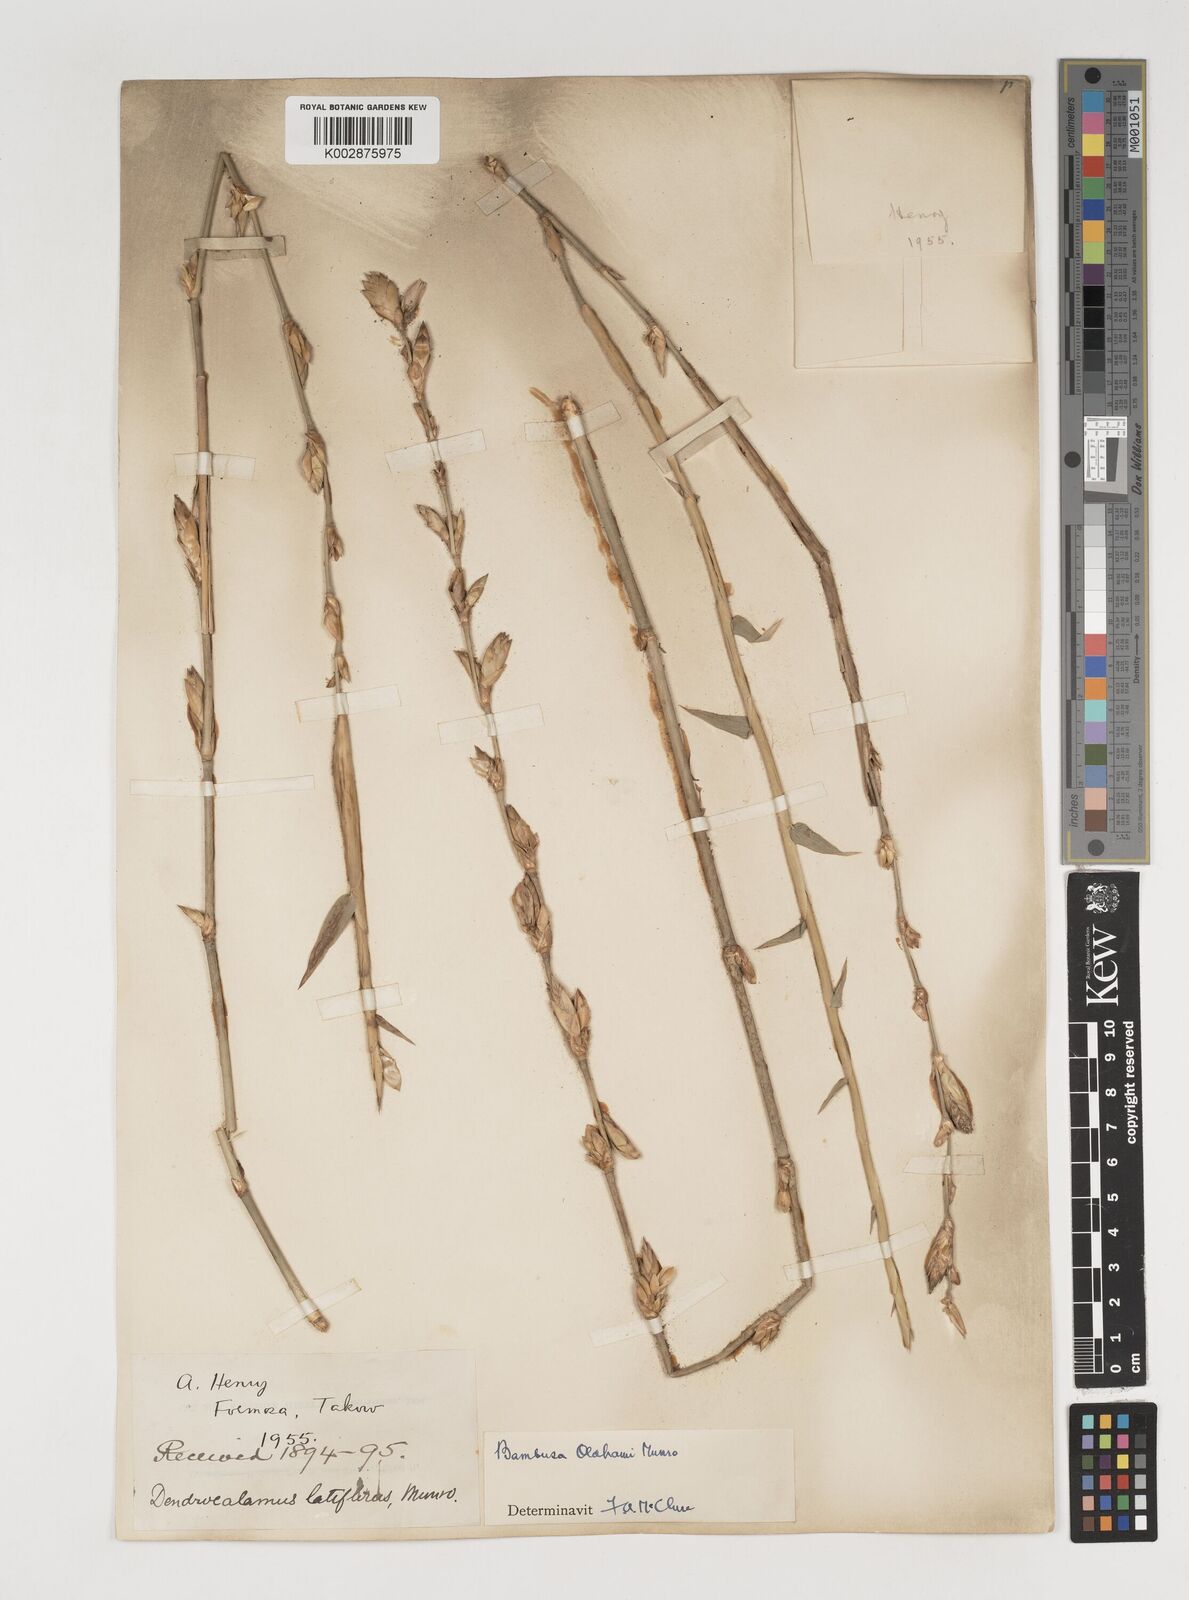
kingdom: Plantae
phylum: Tracheophyta
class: Liliopsida
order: Poales
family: Poaceae
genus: Bambusa
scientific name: Bambusa oldhamii
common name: Giant timber bamboo
